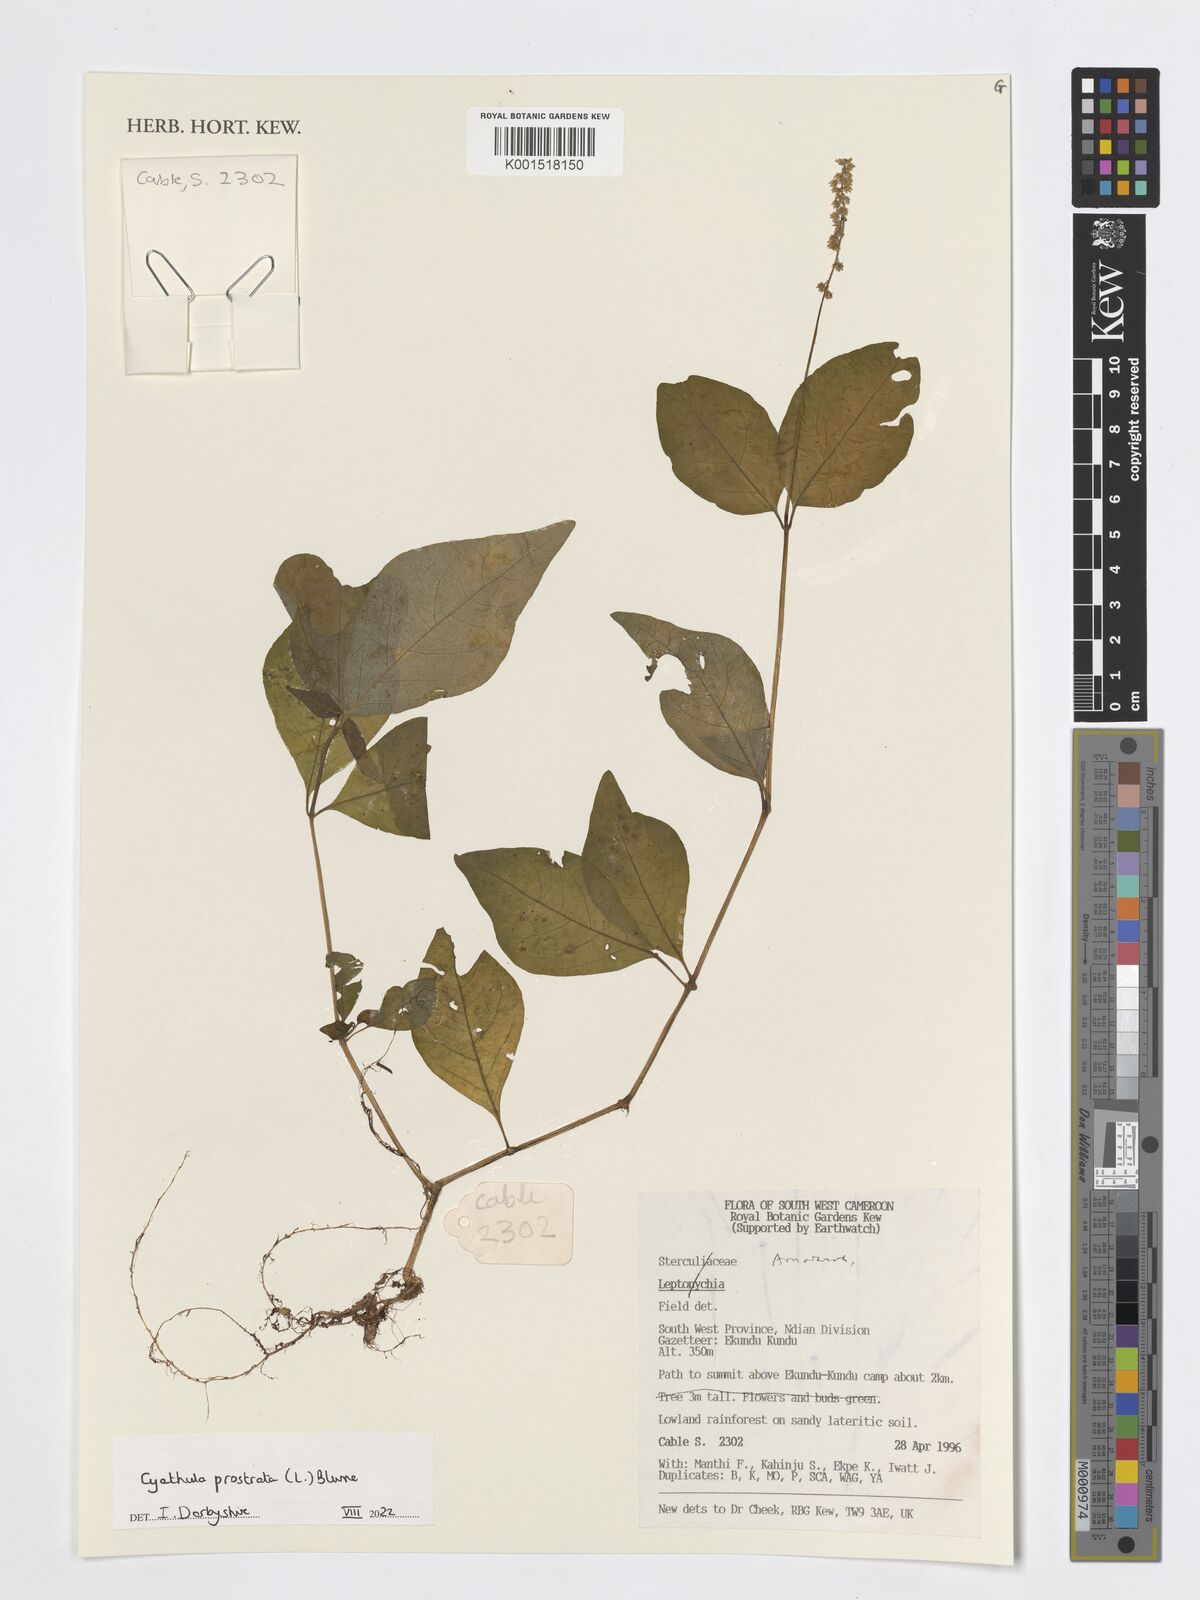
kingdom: Plantae
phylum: Tracheophyta
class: Magnoliopsida
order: Caryophyllales
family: Amaranthaceae
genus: Cyathula
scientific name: Cyathula prostrata
